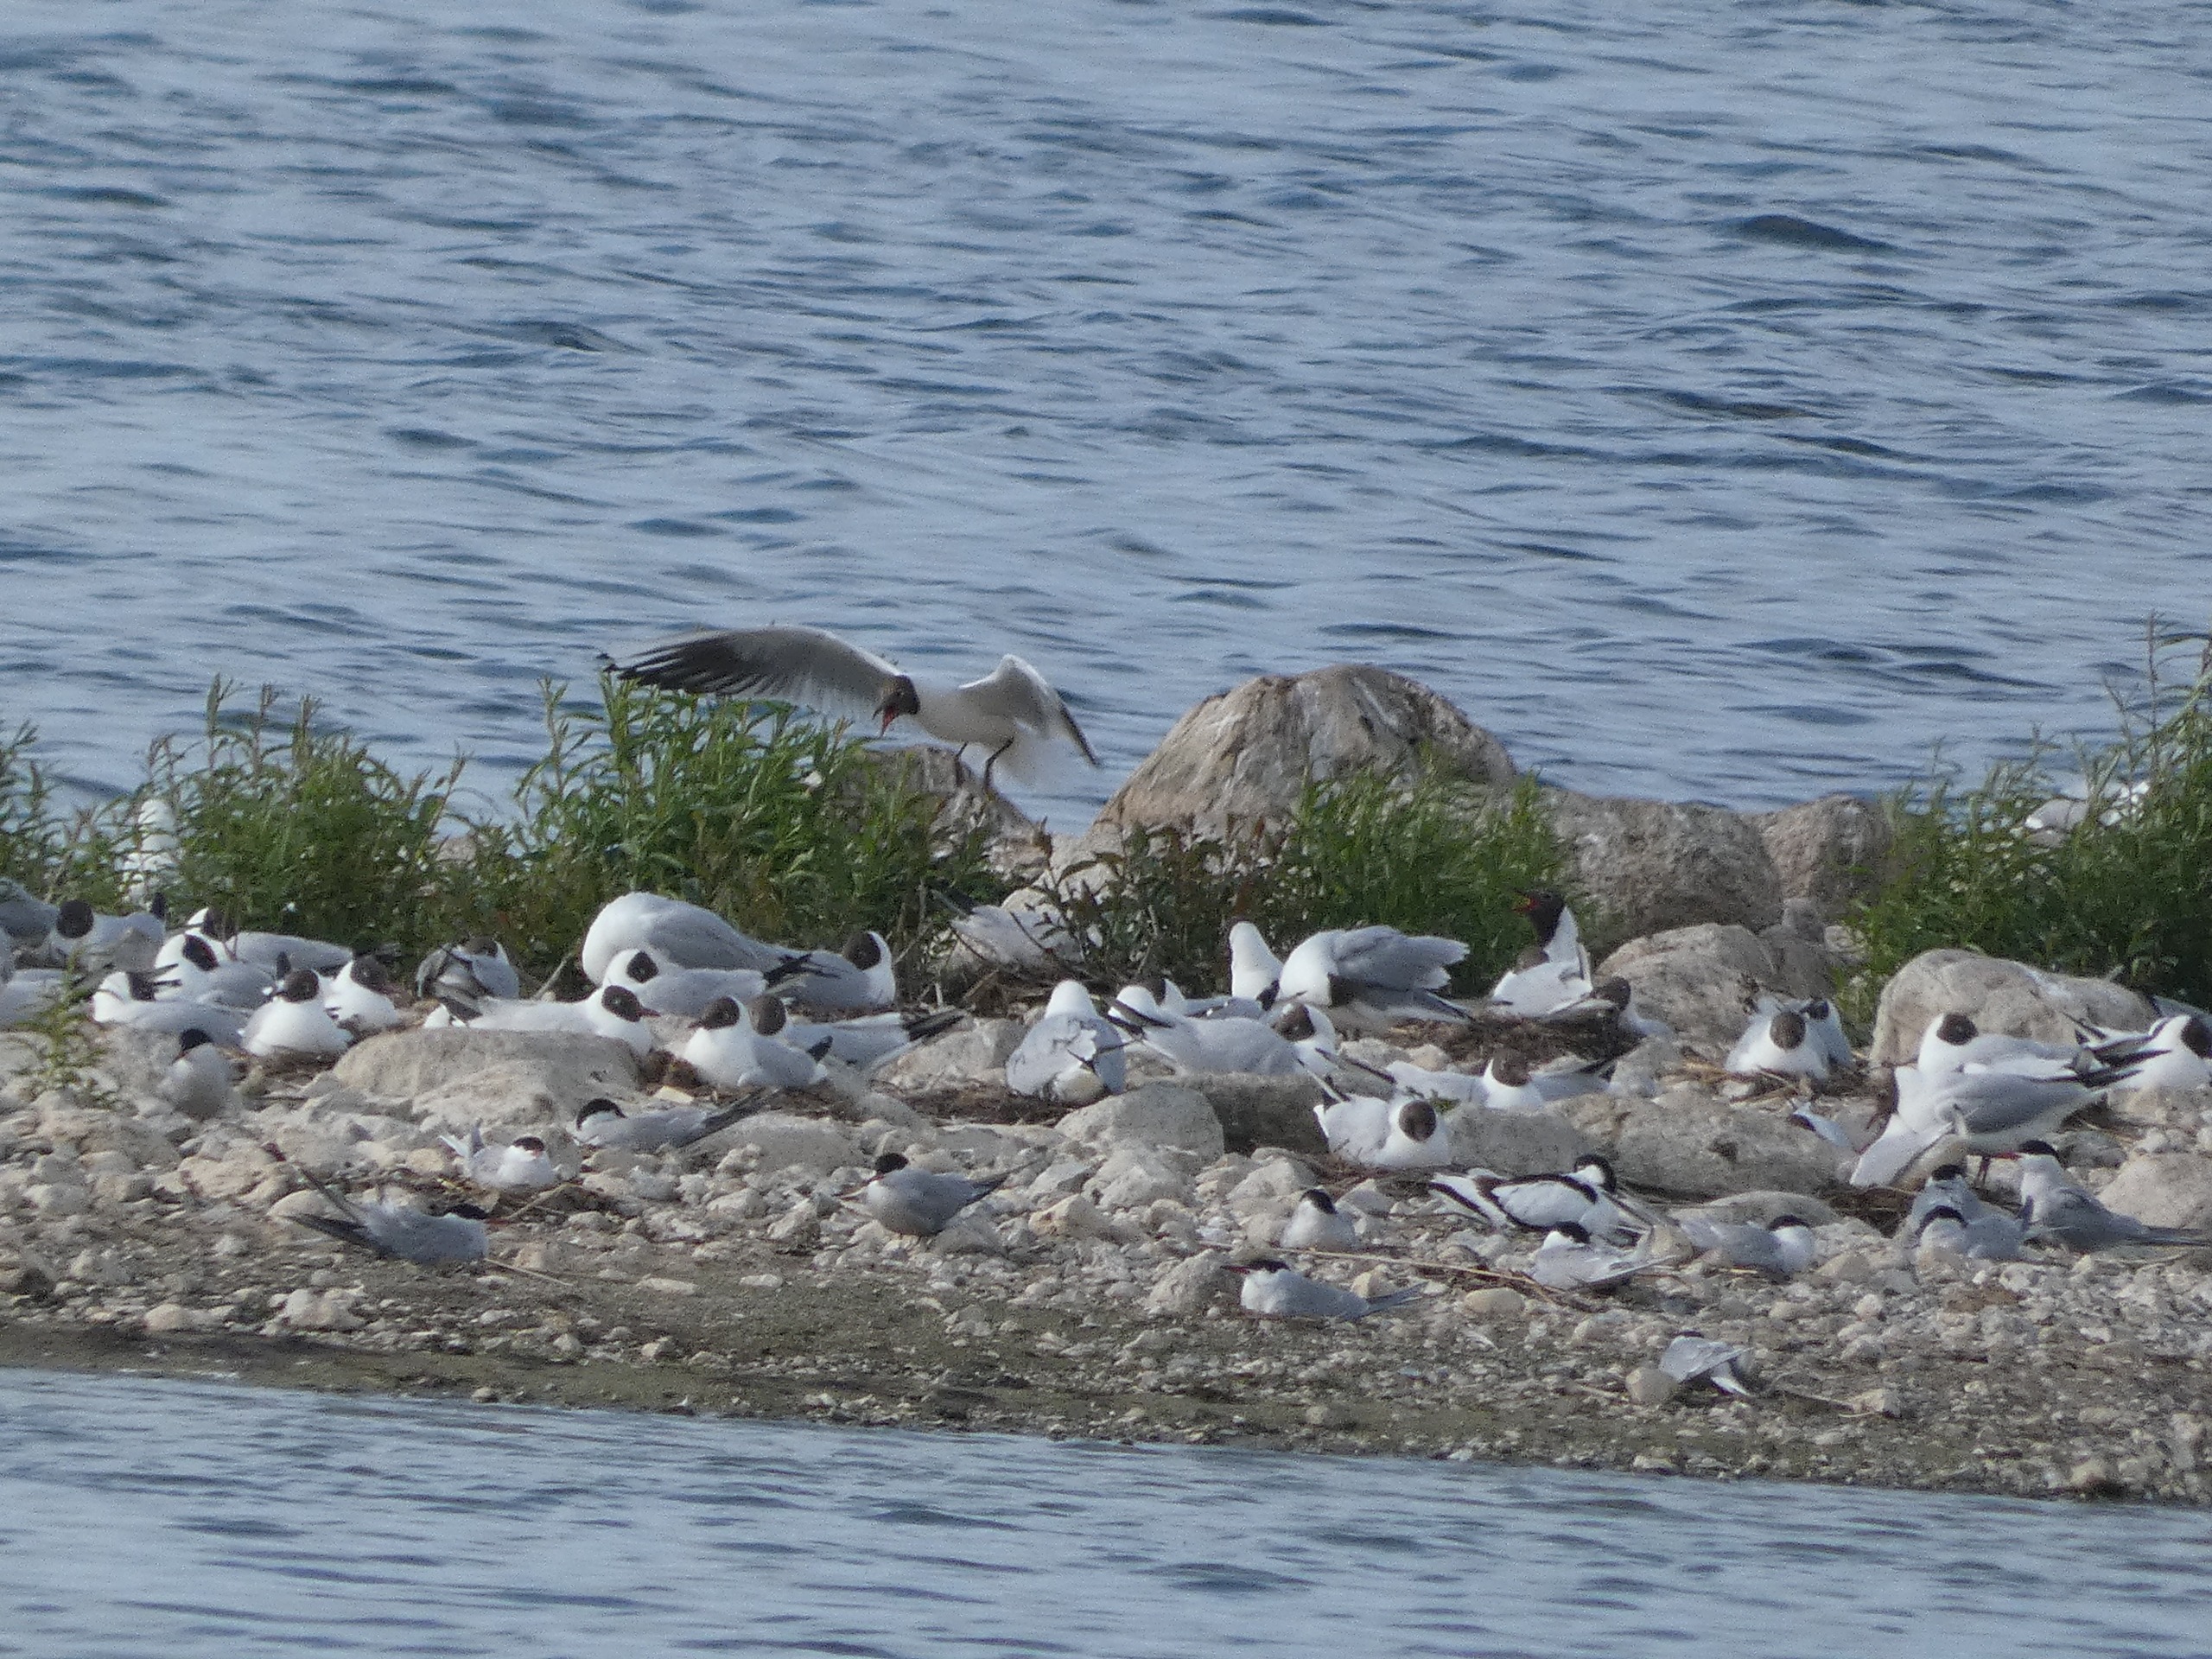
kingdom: Animalia
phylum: Chordata
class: Aves
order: Charadriiformes
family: Recurvirostridae
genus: Recurvirostra
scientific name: Recurvirostra avosetta
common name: Klyde
